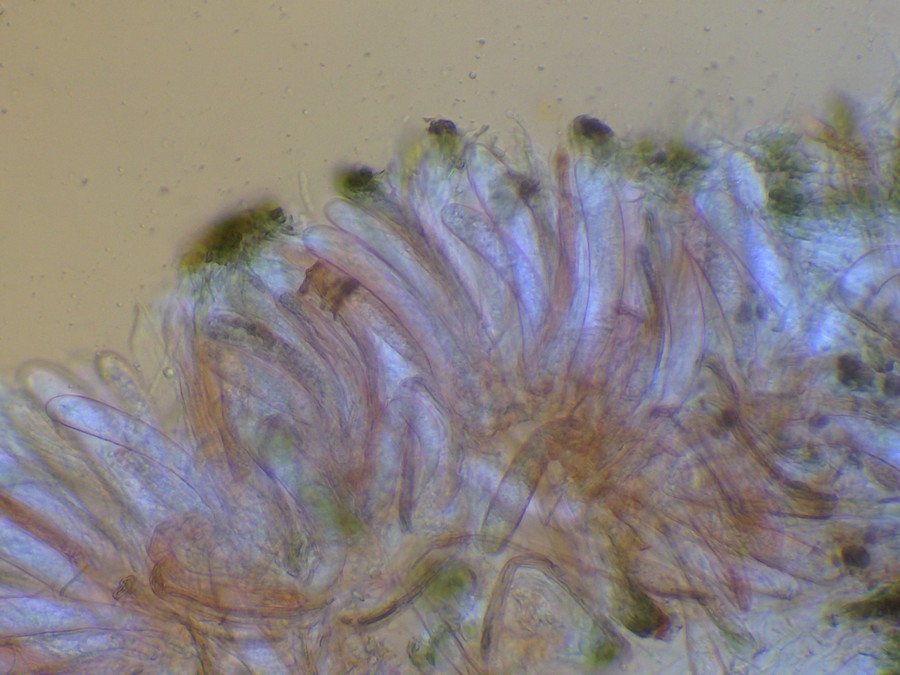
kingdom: Fungi
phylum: Ascomycota
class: Leotiomycetes
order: Leotiales
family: Tympanidaceae
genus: Vexillomyces
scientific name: Vexillomyces atrovirens
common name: sortgrøn linseskive
